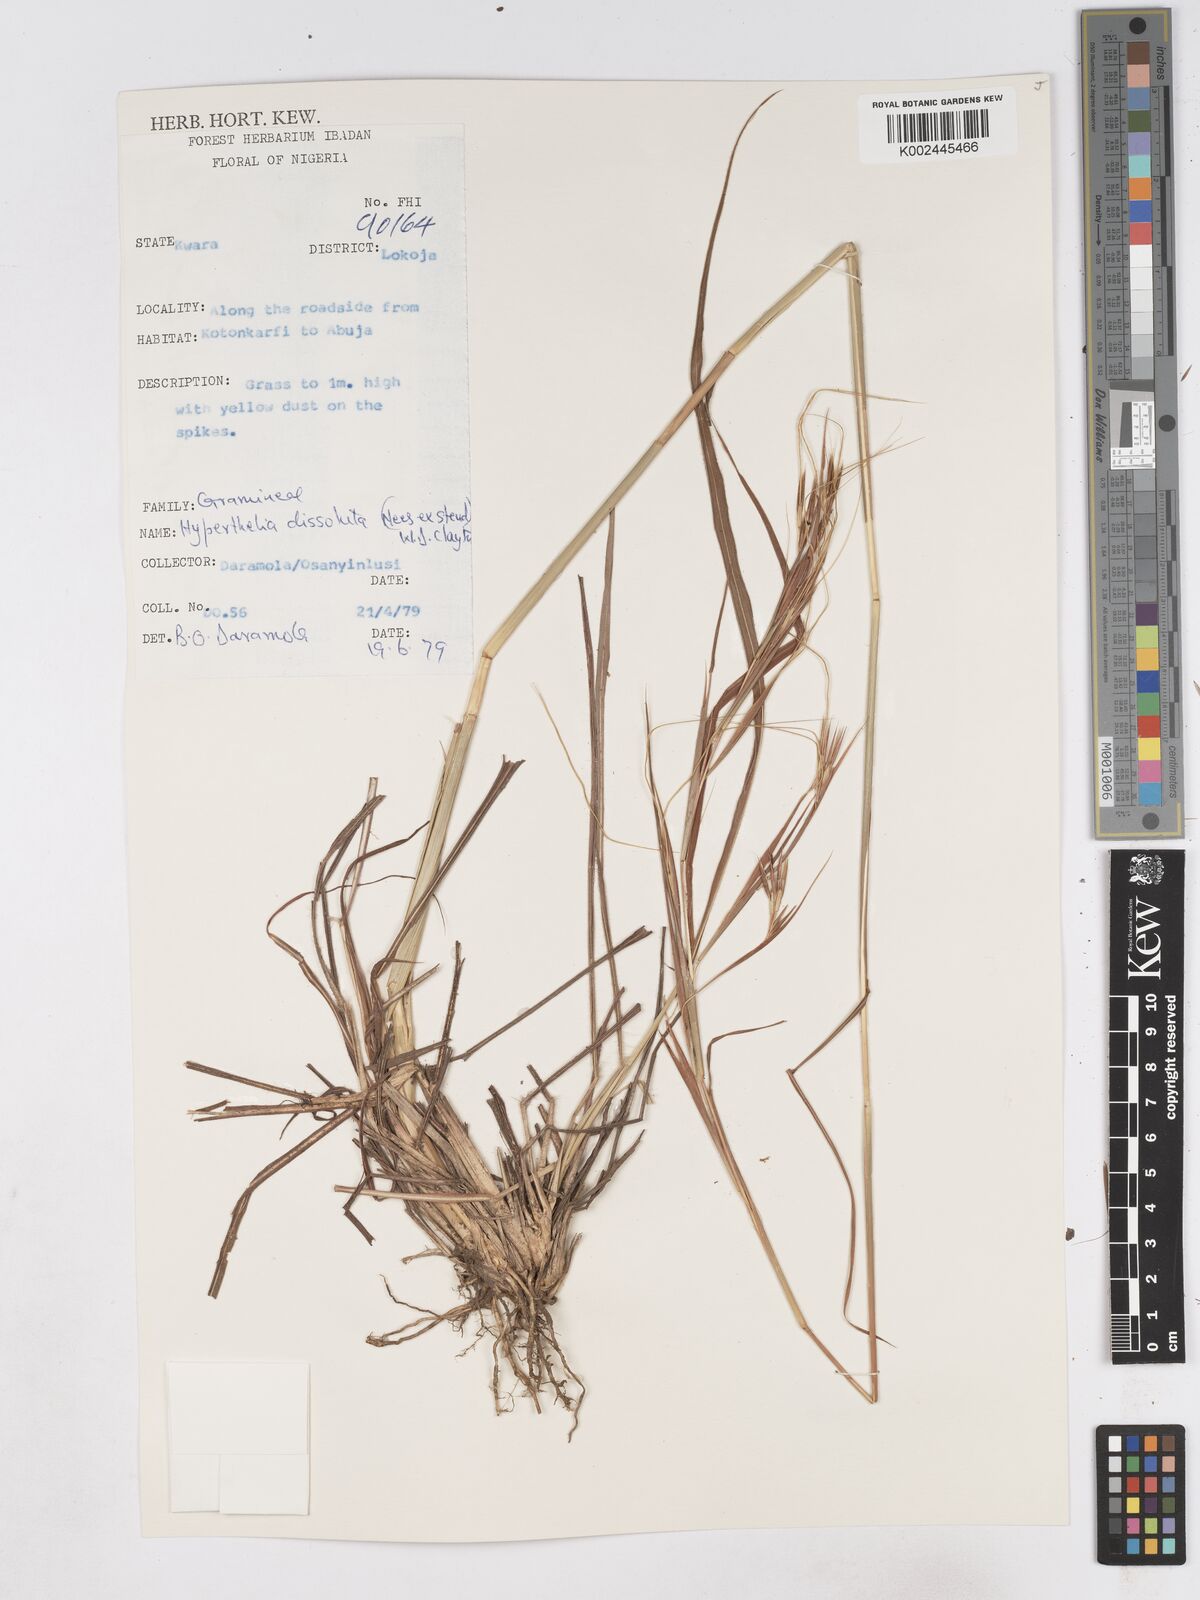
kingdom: Plantae
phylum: Tracheophyta
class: Liliopsida
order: Poales
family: Poaceae
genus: Hyperthelia
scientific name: Hyperthelia dissoluta
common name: Yellow thatching grass
